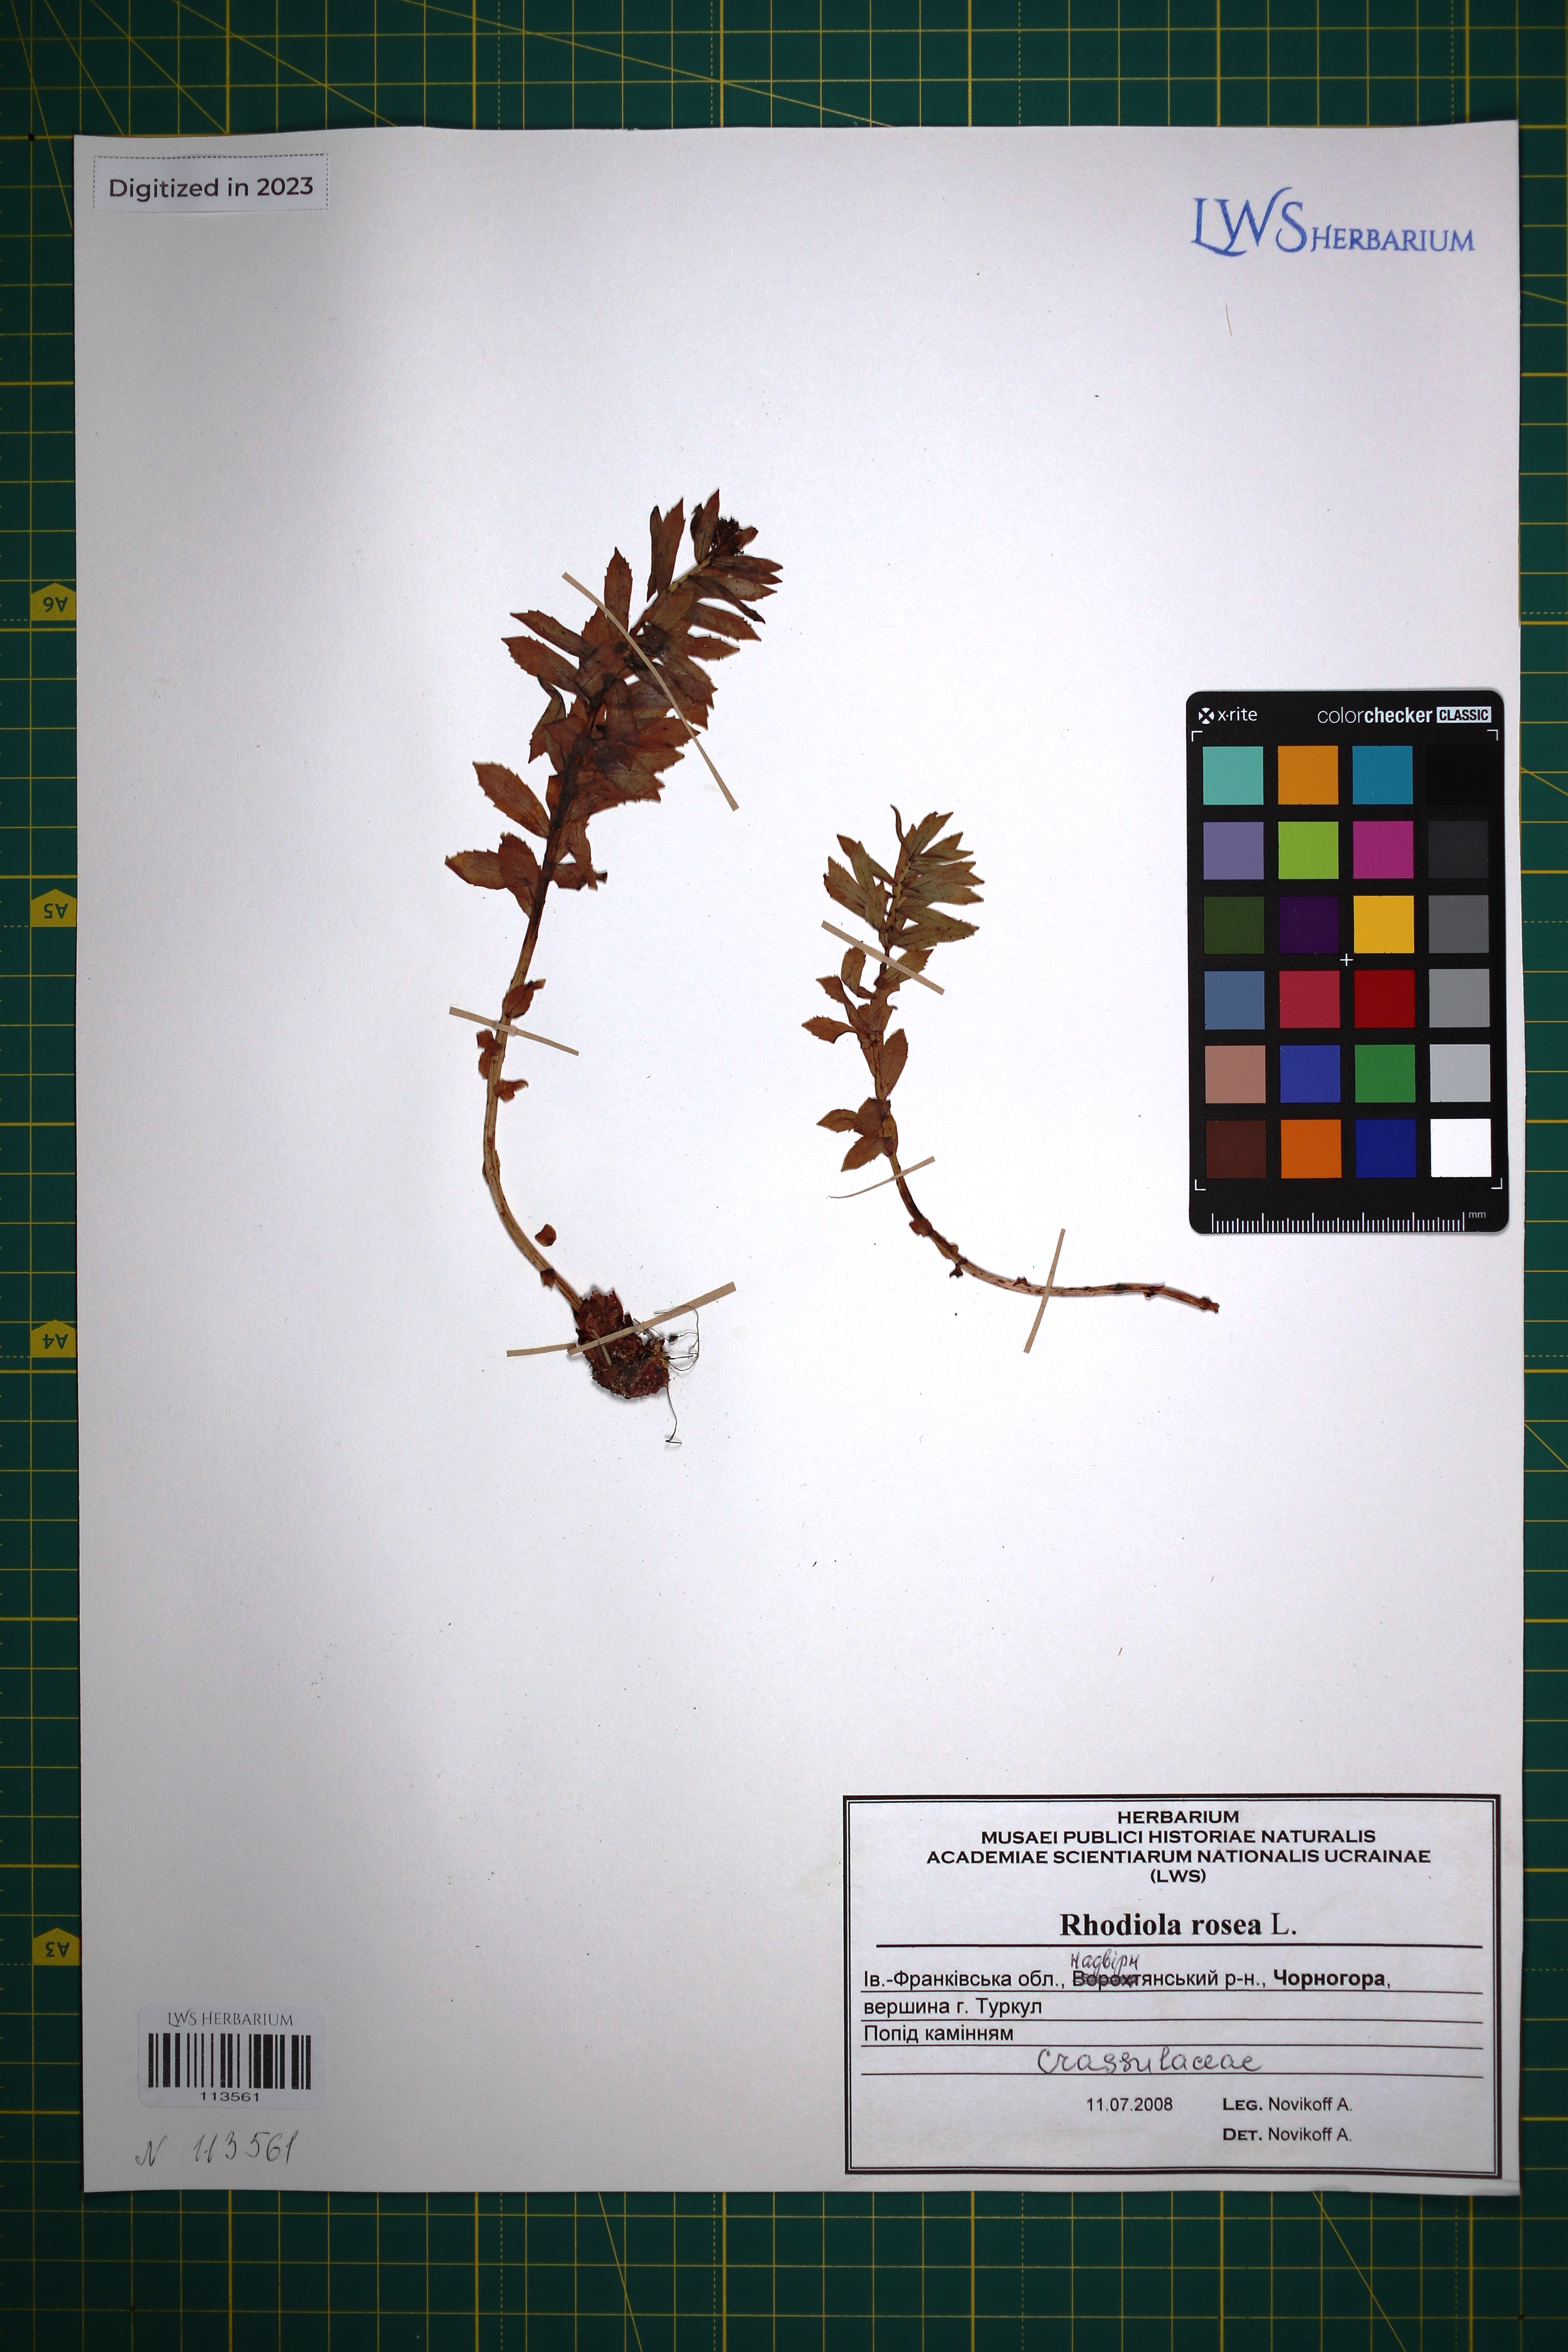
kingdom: Plantae
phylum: Tracheophyta
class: Magnoliopsida
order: Saxifragales
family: Crassulaceae
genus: Rhodiola
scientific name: Rhodiola rosea
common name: Roseroot
